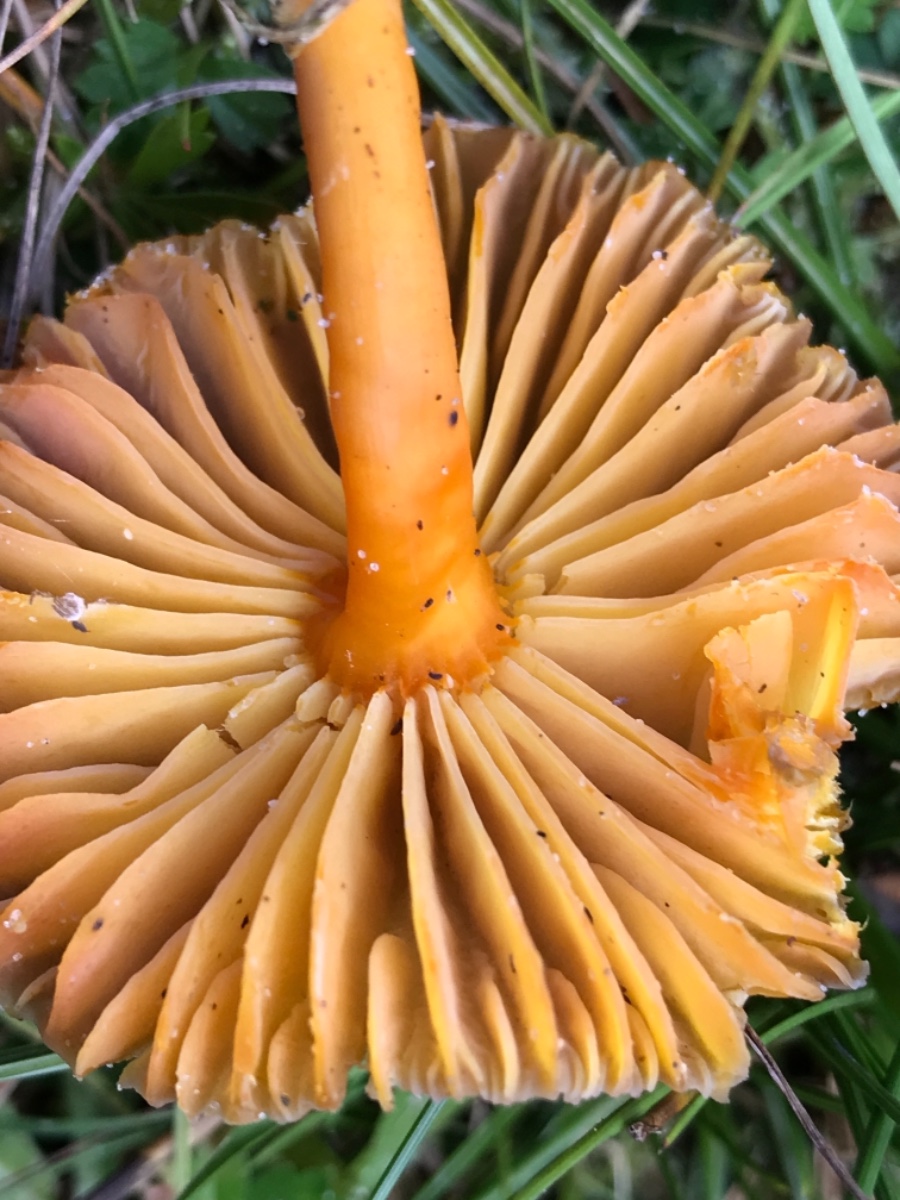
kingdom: Fungi
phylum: Basidiomycota
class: Agaricomycetes
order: Agaricales
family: Hygrophoraceae
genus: Hygrocybe
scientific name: Hygrocybe miniata
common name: mønje-vokshat
